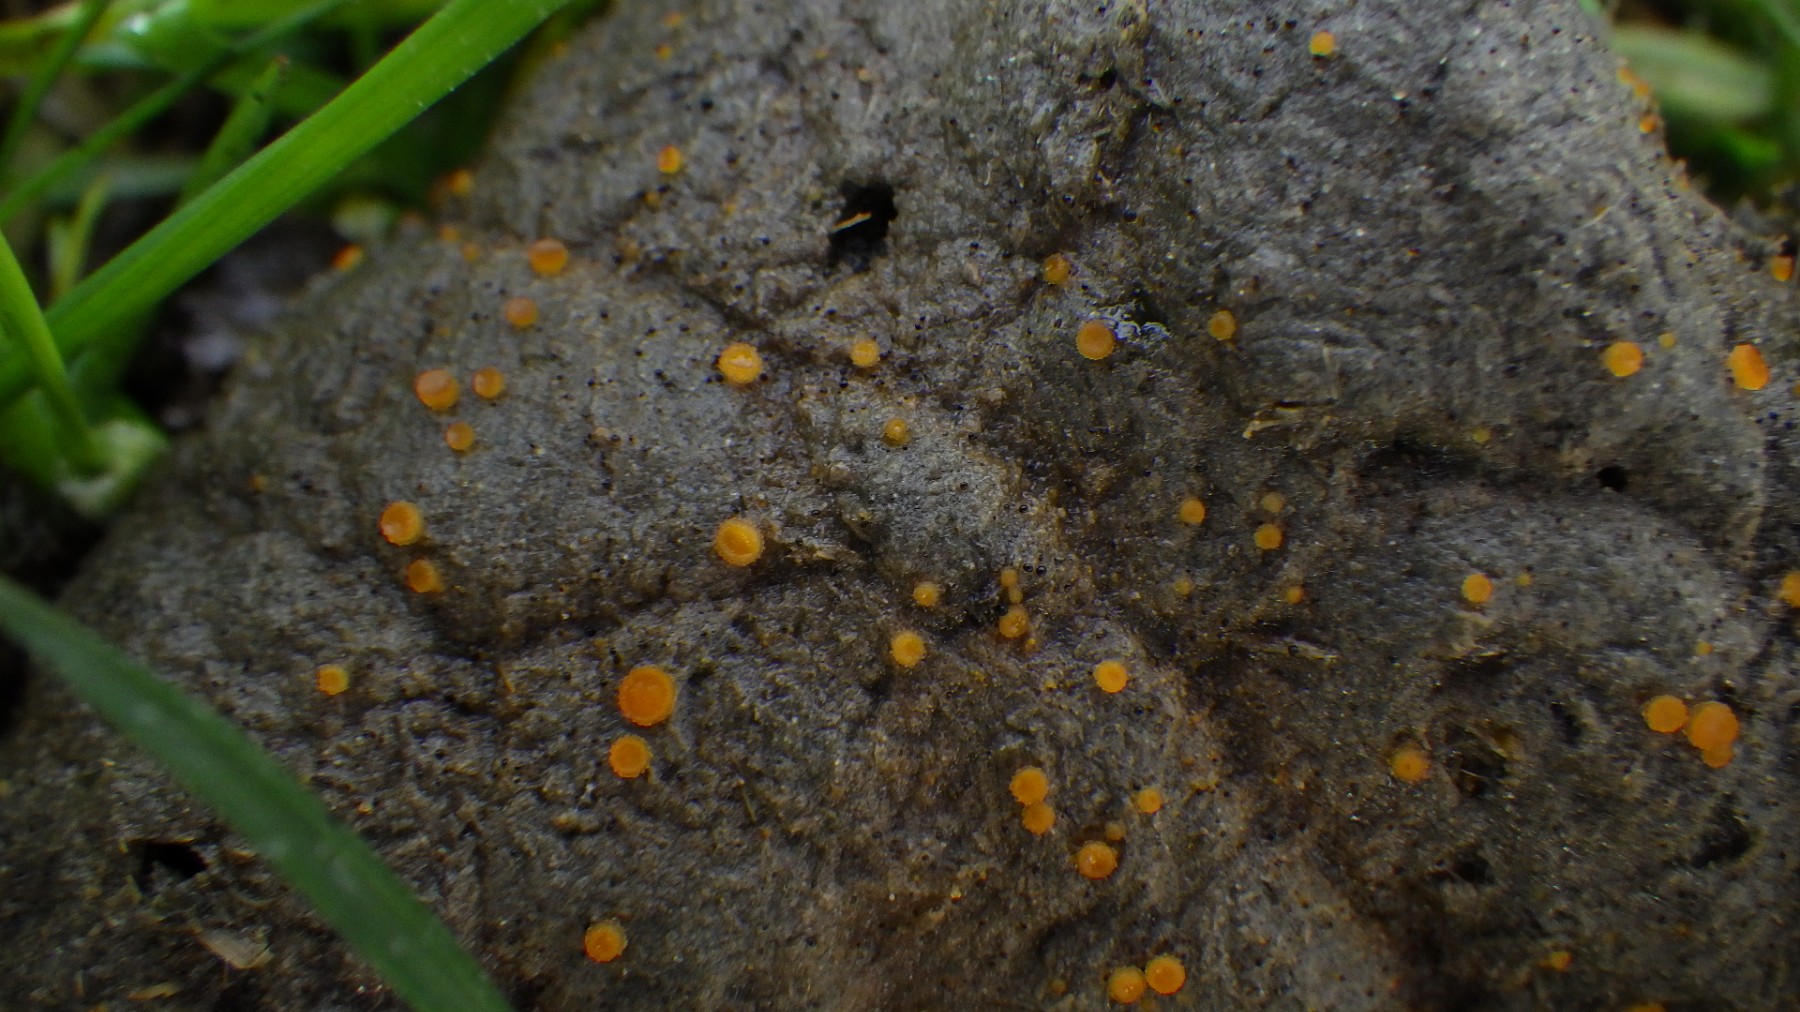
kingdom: Fungi
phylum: Ascomycota
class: Pezizomycetes
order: Pezizales
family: Pyronemataceae
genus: Cheilymenia
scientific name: Cheilymenia granulata
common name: møgbæger
